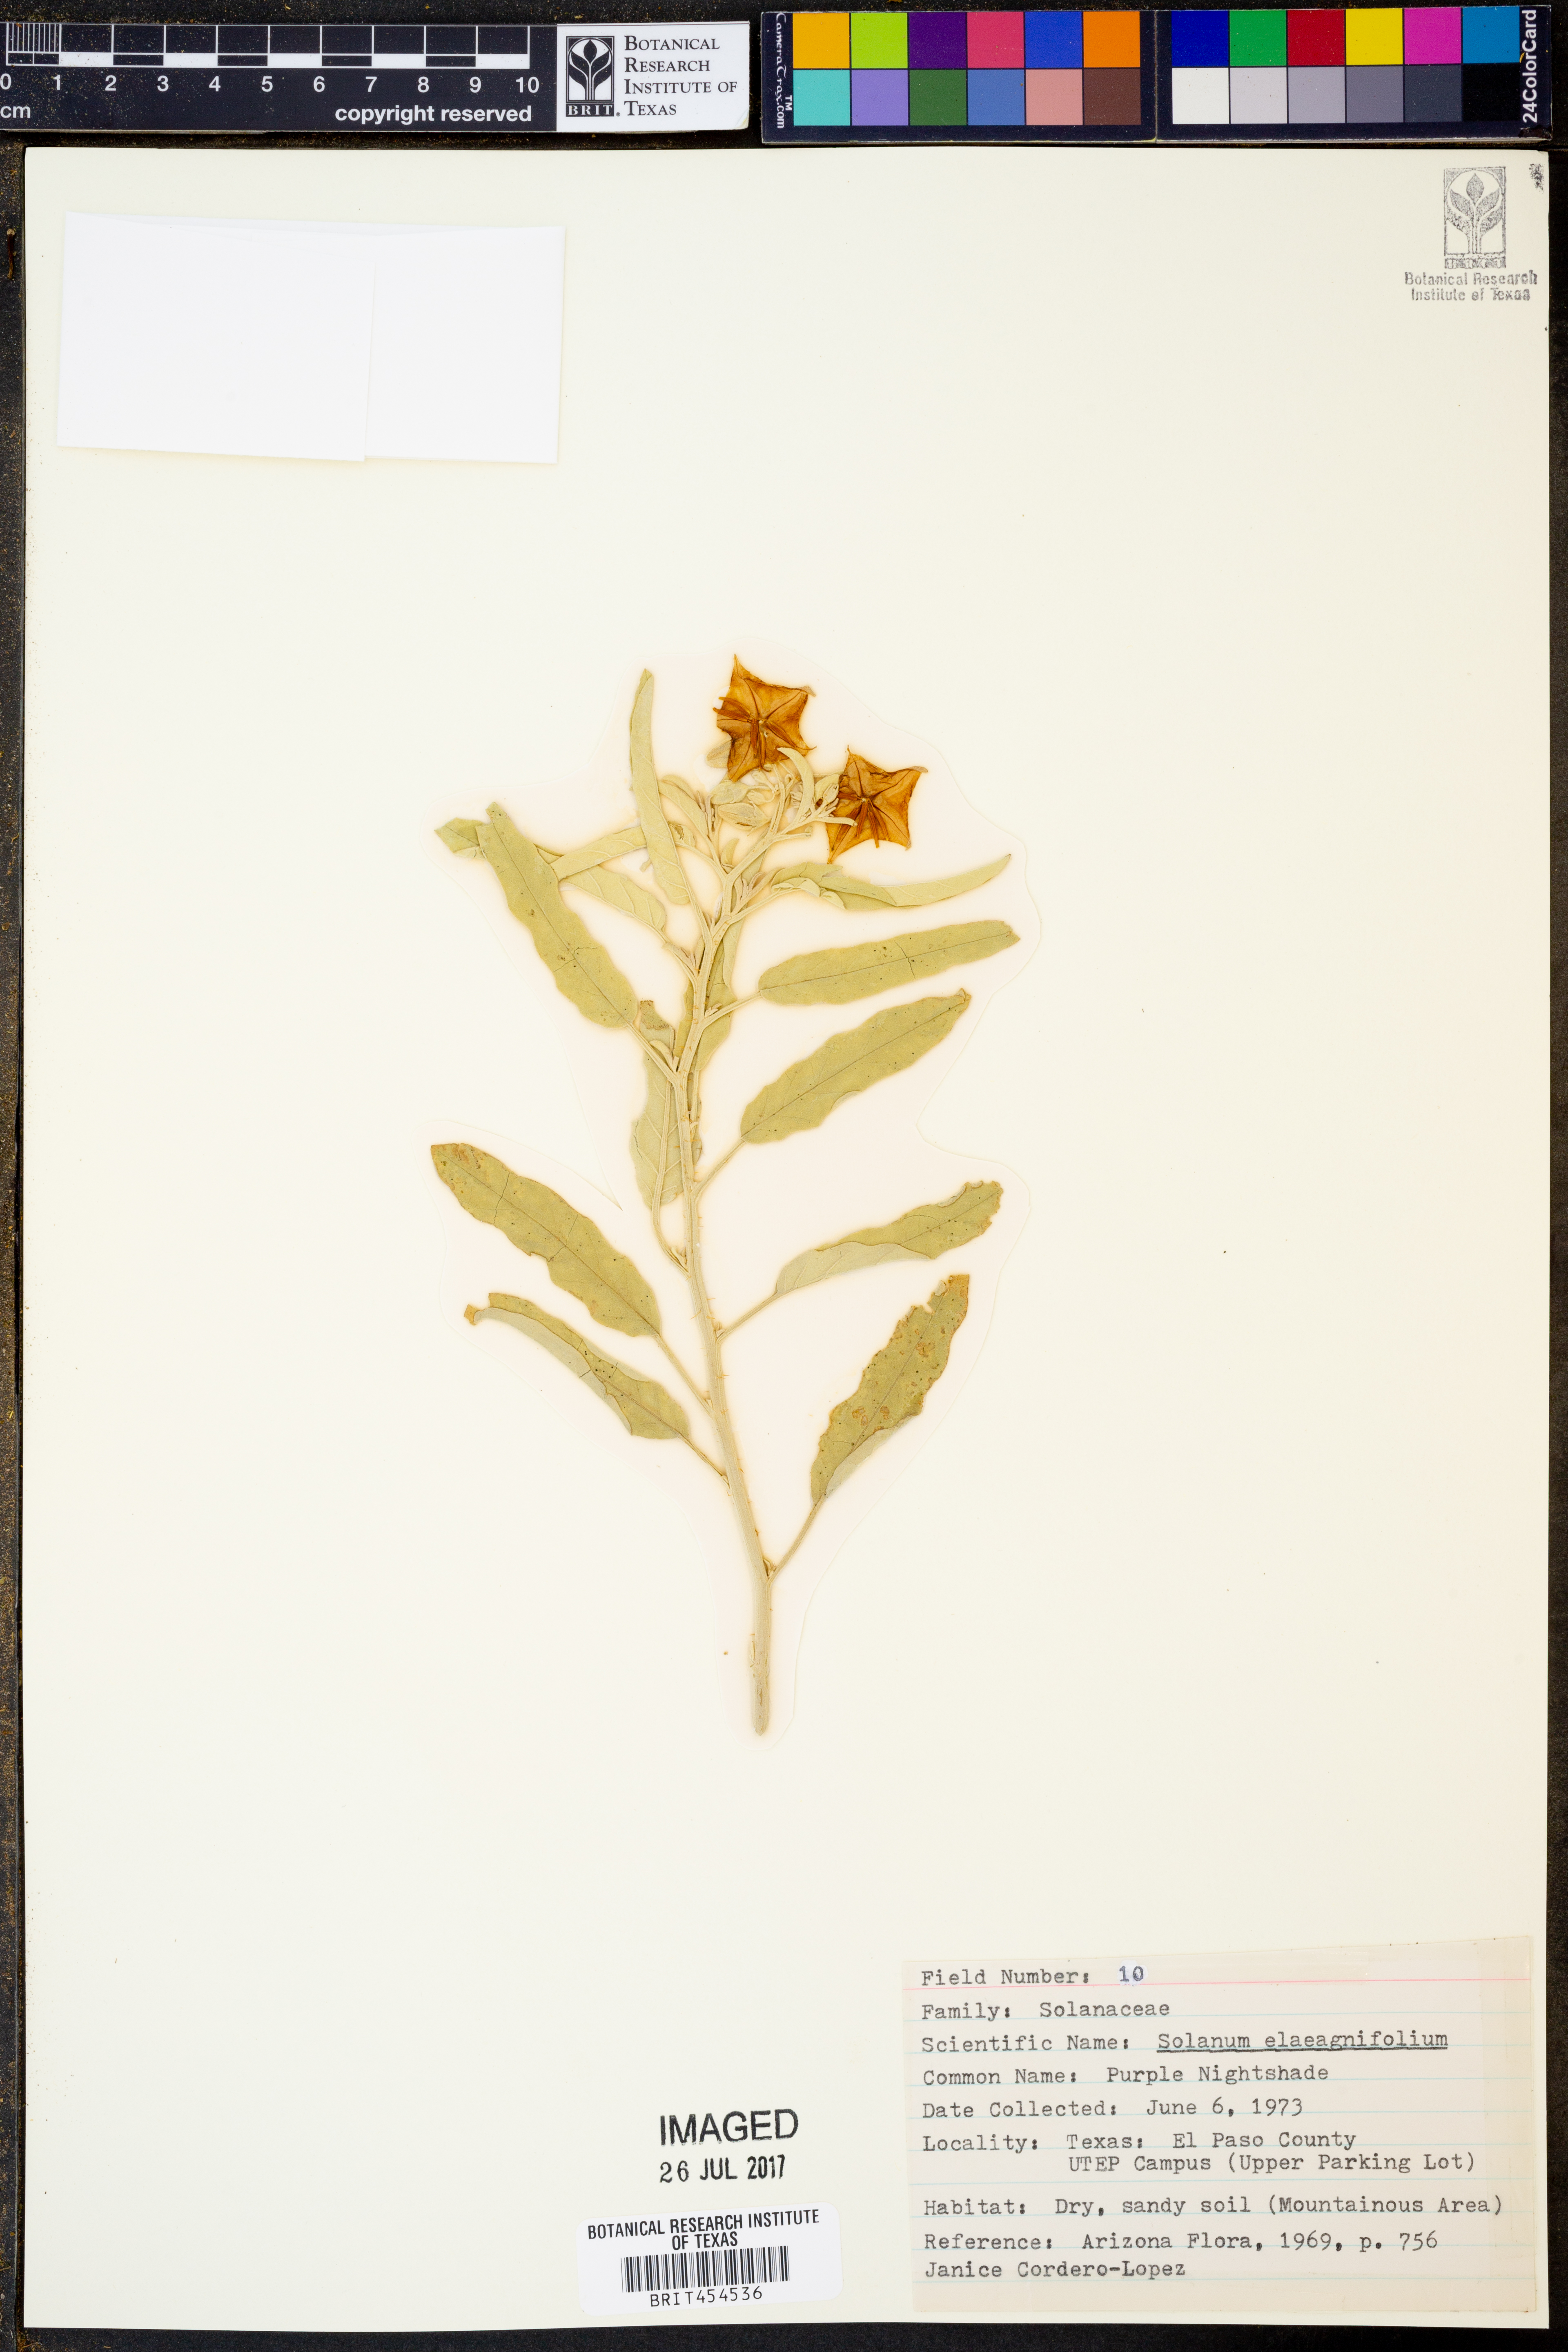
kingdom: Plantae
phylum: Tracheophyta
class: Magnoliopsida
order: Solanales
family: Solanaceae
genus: Solanum
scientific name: Solanum elaeagnifolium
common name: Silverleaf nightshade
